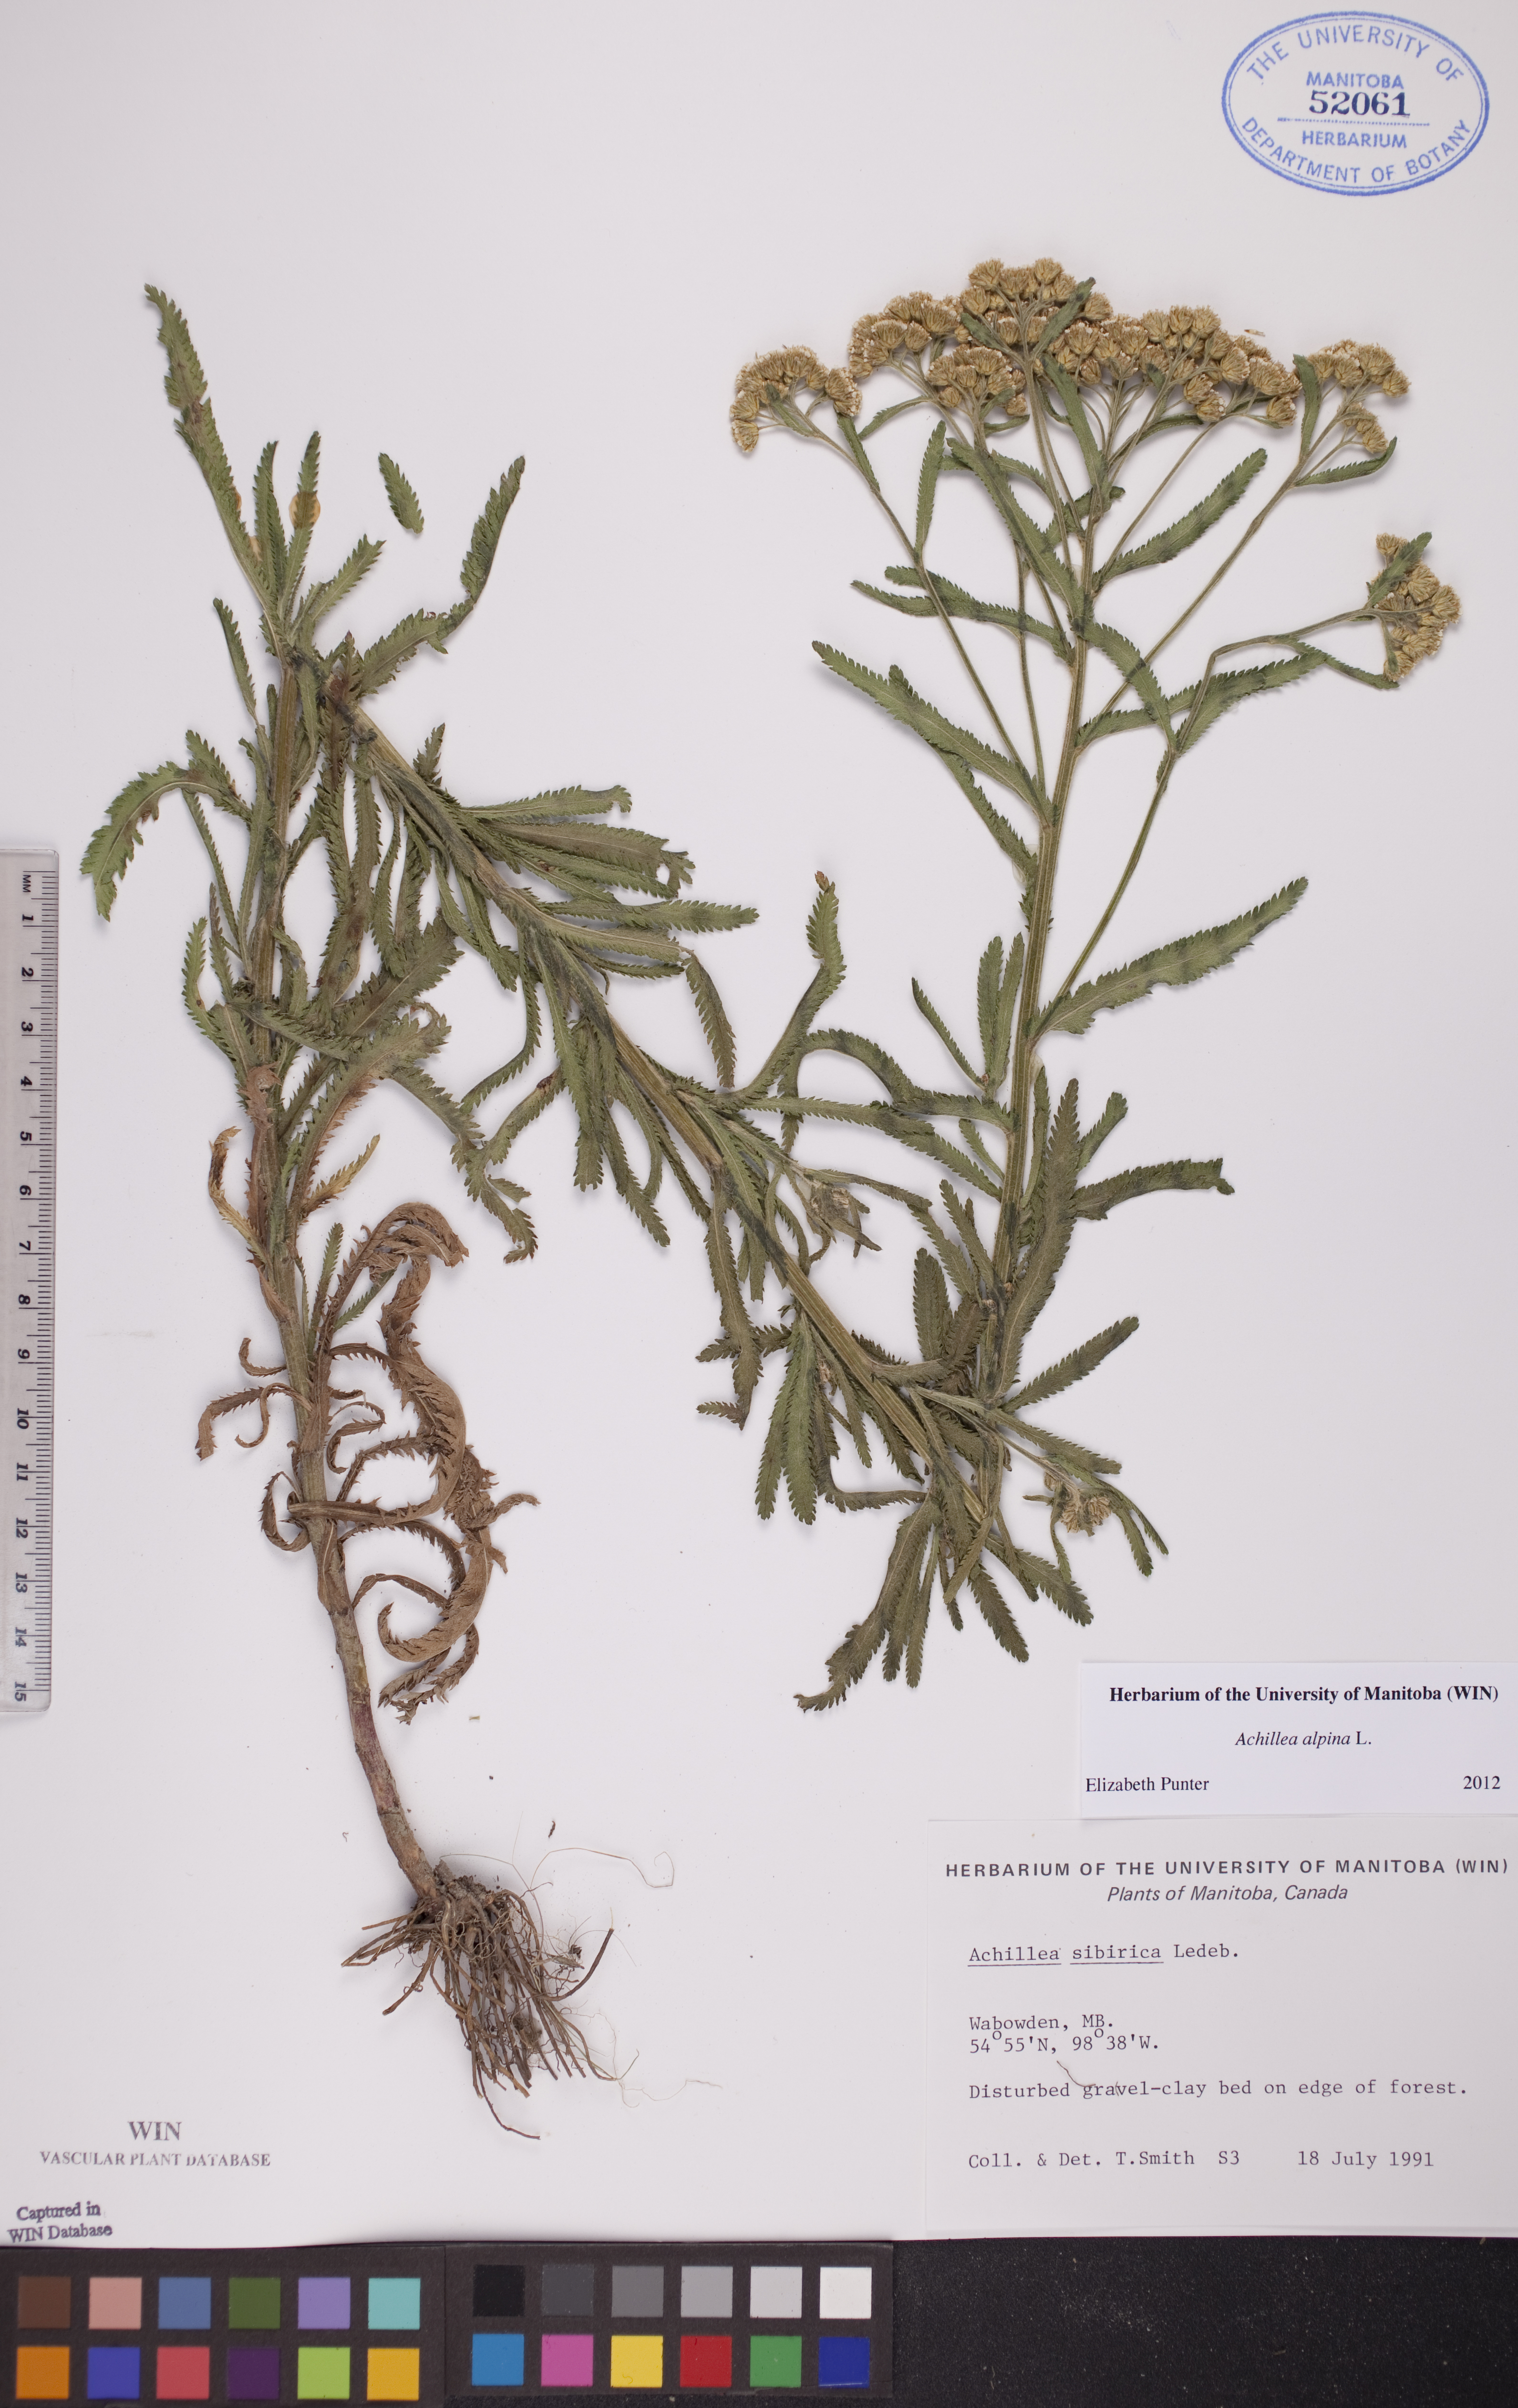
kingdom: Plantae
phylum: Tracheophyta
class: Magnoliopsida
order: Asterales
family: Asteraceae
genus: Achillea
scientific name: Achillea alpina
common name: Siberian yarrow
